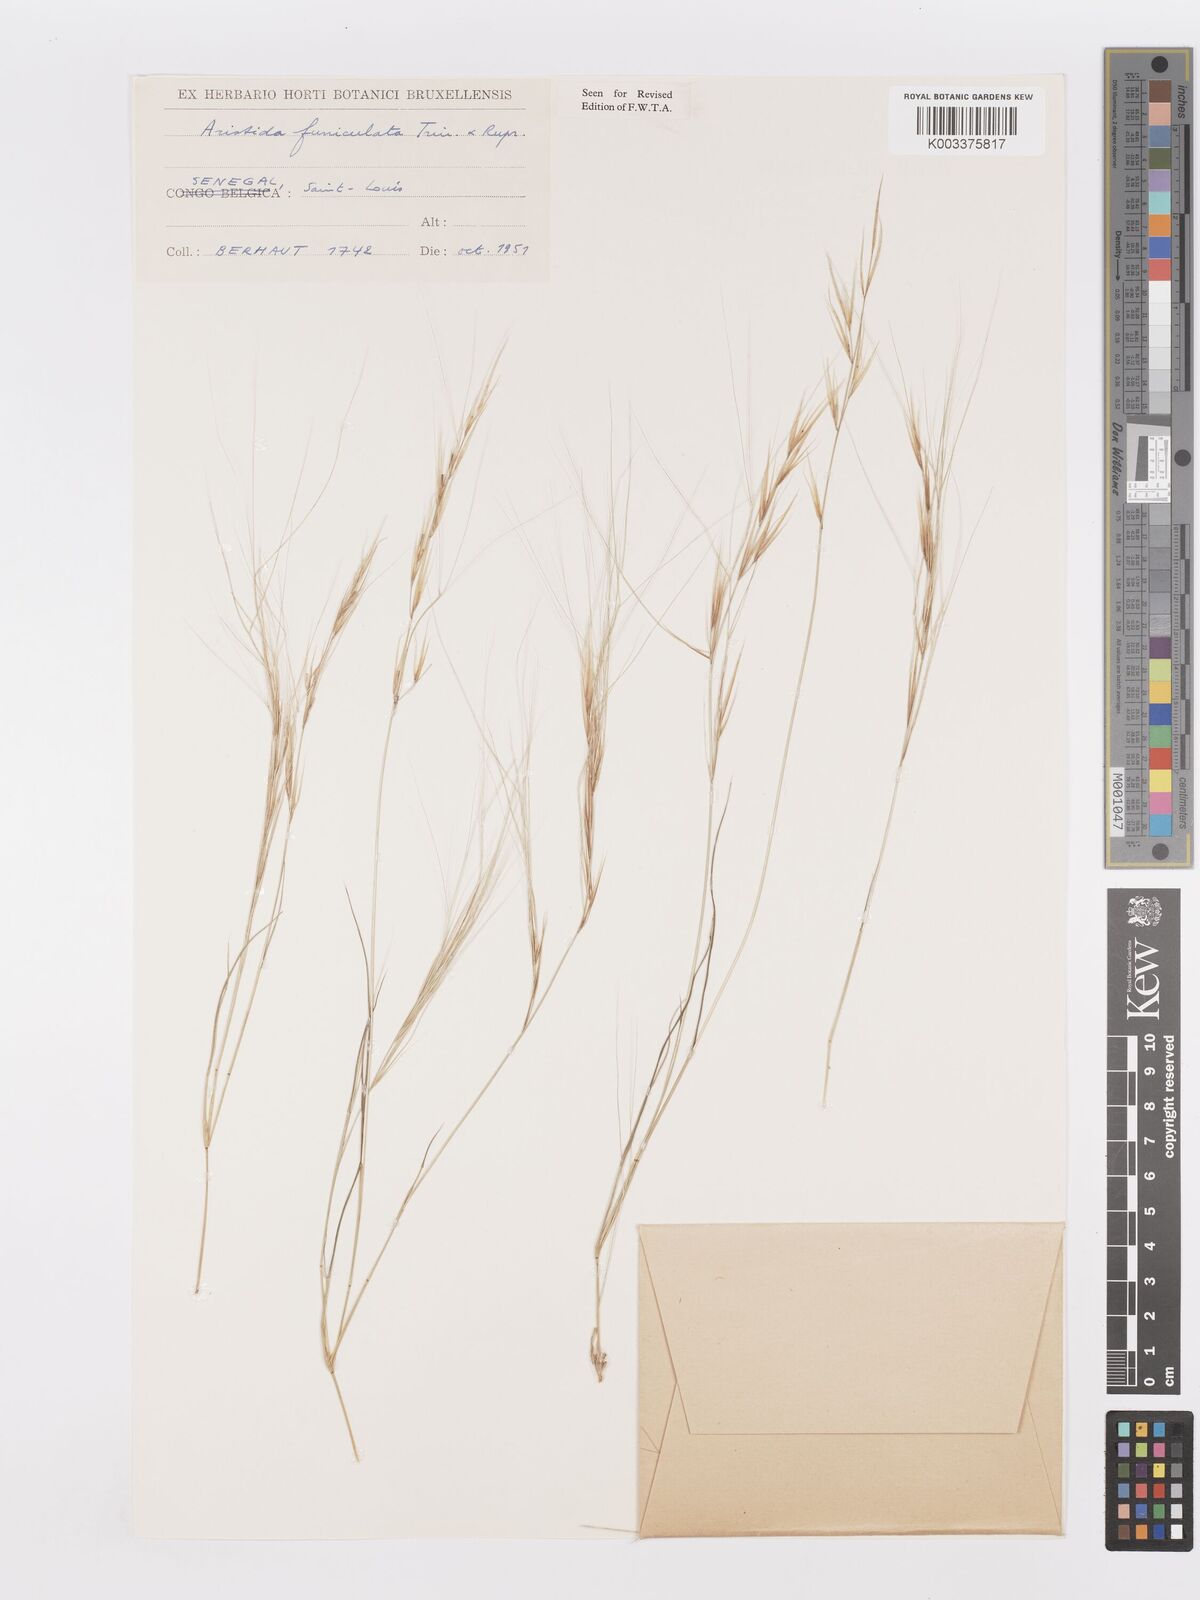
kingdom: Plantae
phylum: Tracheophyta
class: Liliopsida
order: Poales
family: Poaceae
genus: Aristida
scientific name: Aristida funiculata
